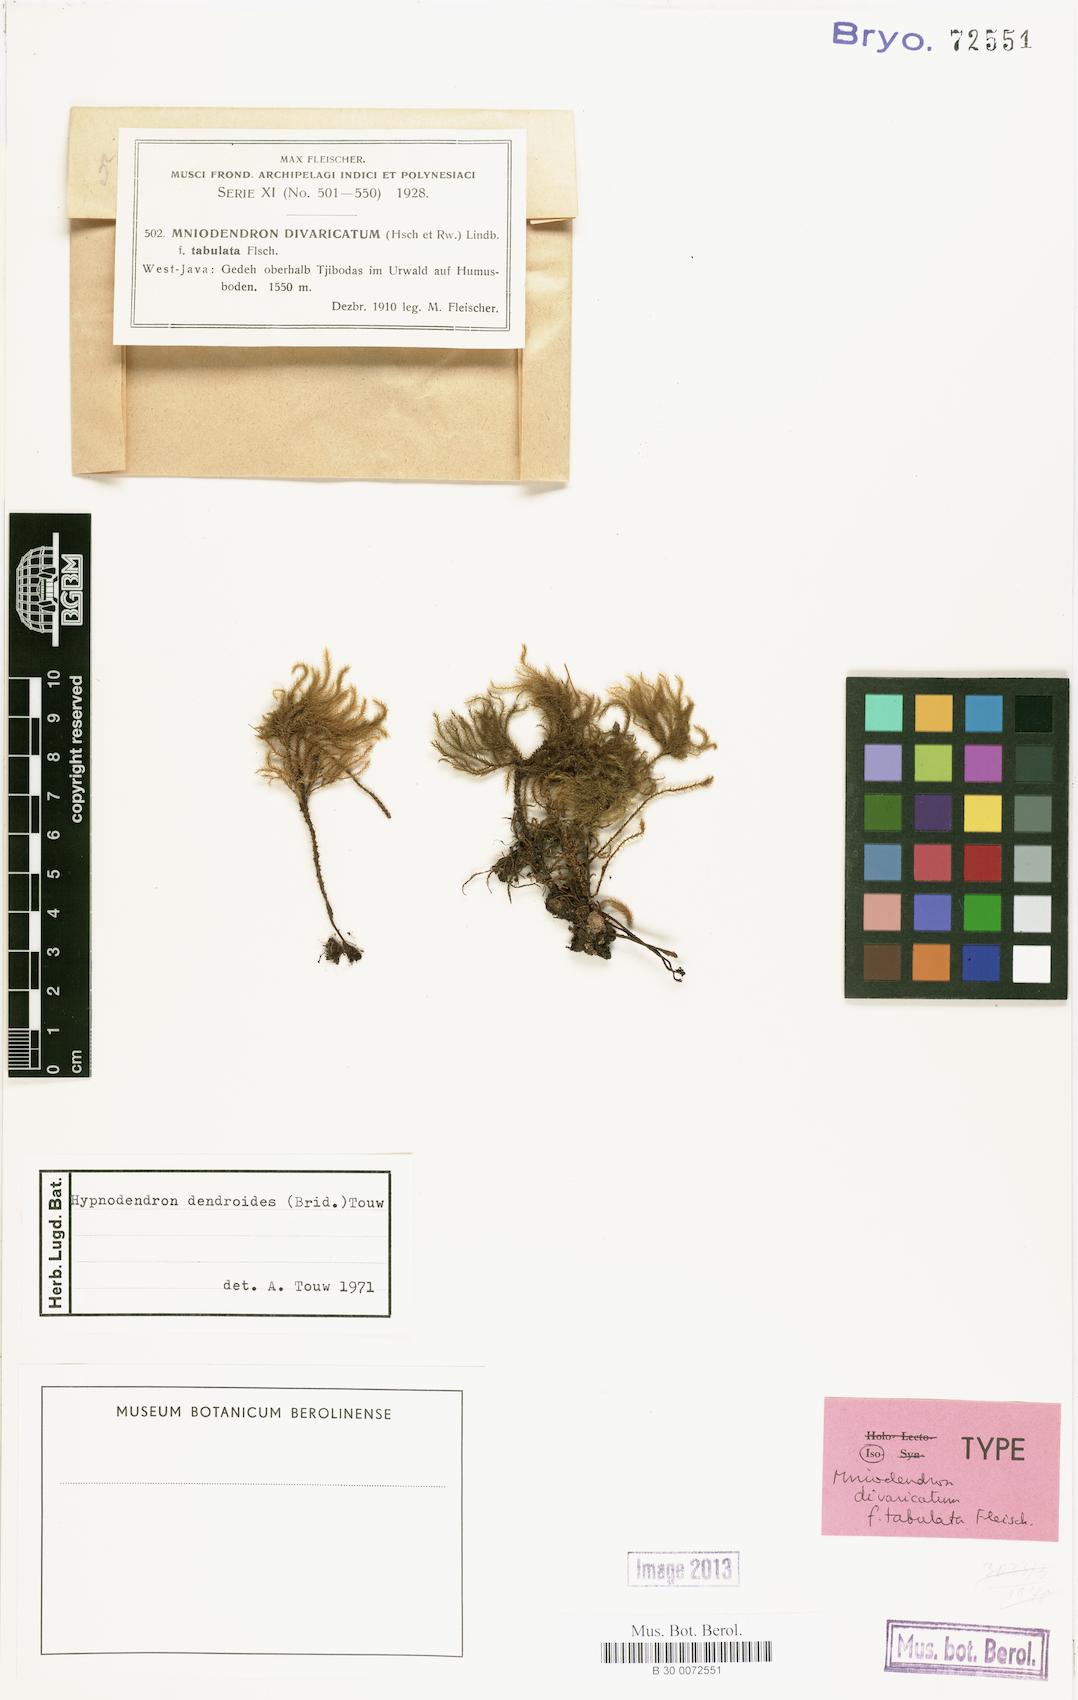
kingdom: Plantae
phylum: Bryophyta
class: Bryopsida
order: Hypnodendrales
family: Spiridentaceae
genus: Mniodendron
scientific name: Mniodendron dendroides
